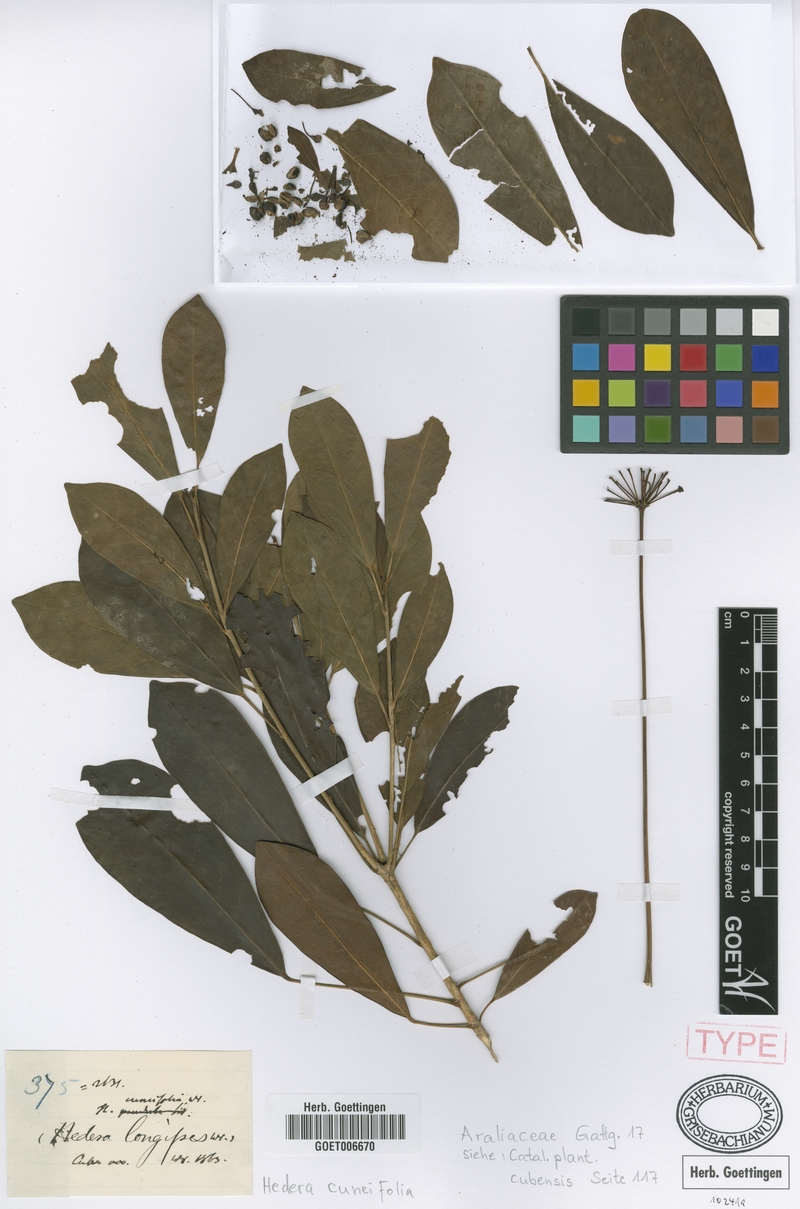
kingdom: Plantae
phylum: Tracheophyta
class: Magnoliopsida
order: Apiales
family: Araliaceae
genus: Dendropanax
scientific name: Dendropanax cuneifolius
